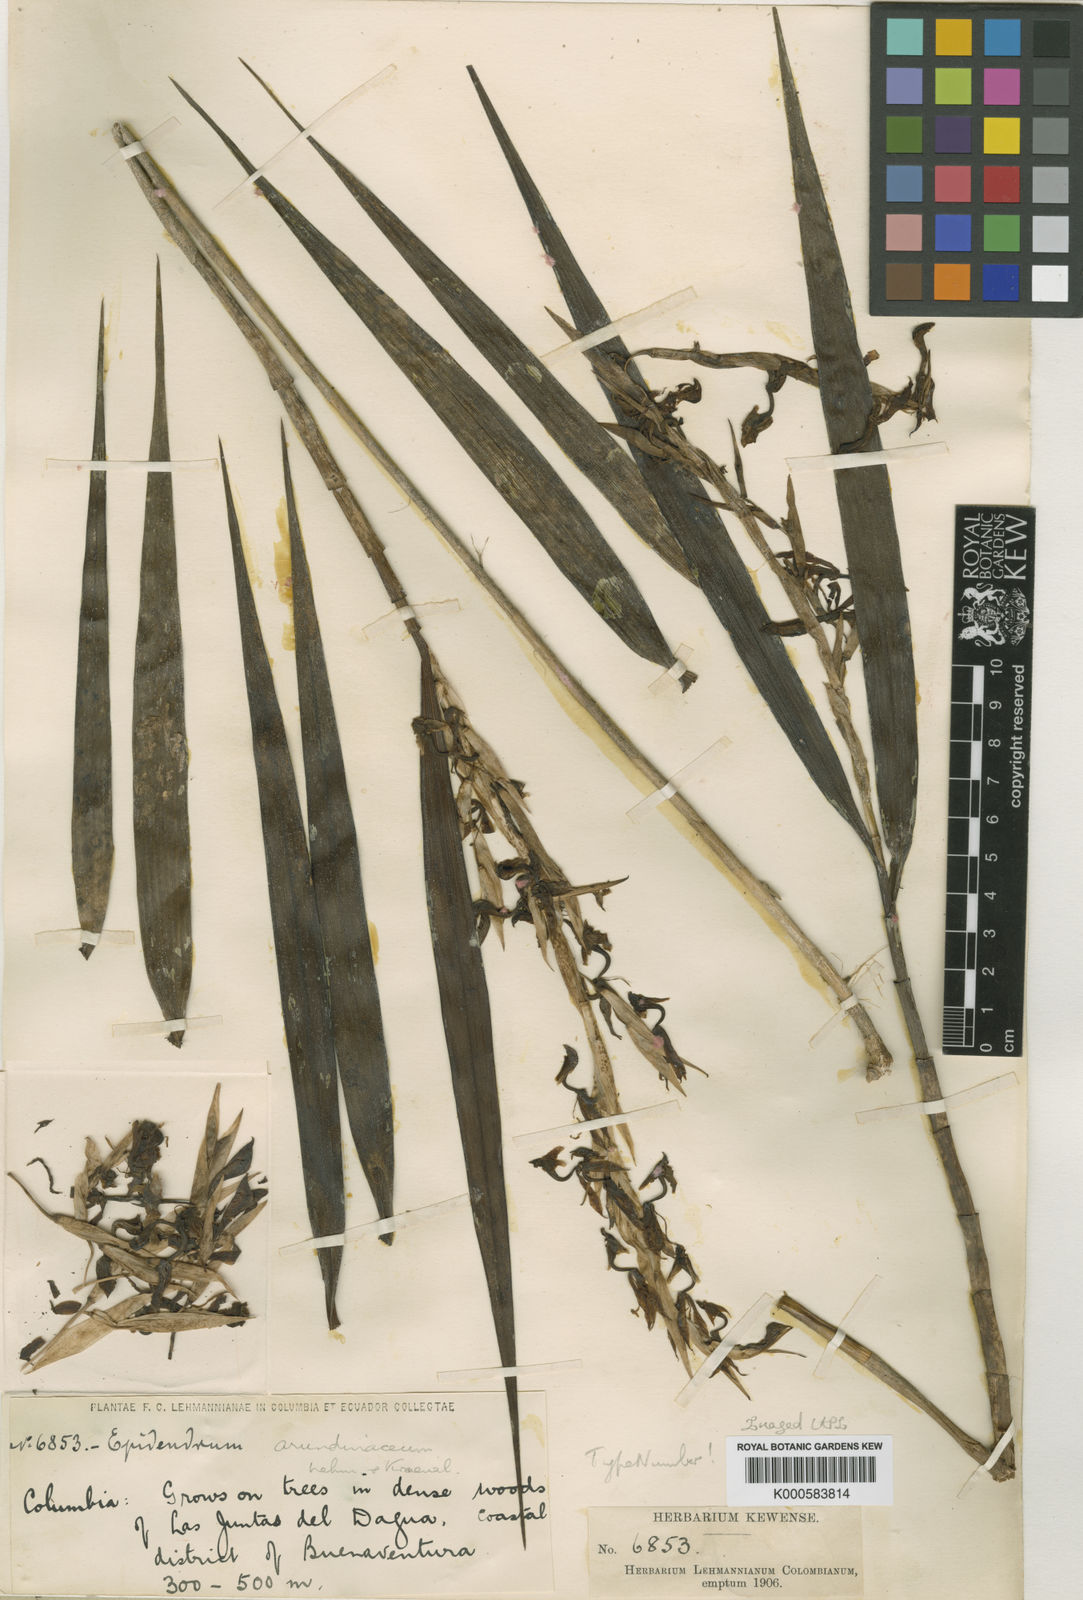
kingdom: Plantae
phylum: Tracheophyta
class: Liliopsida
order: Asparagales
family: Orchidaceae
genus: Epidendrum
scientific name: Epidendrum hymenodes
